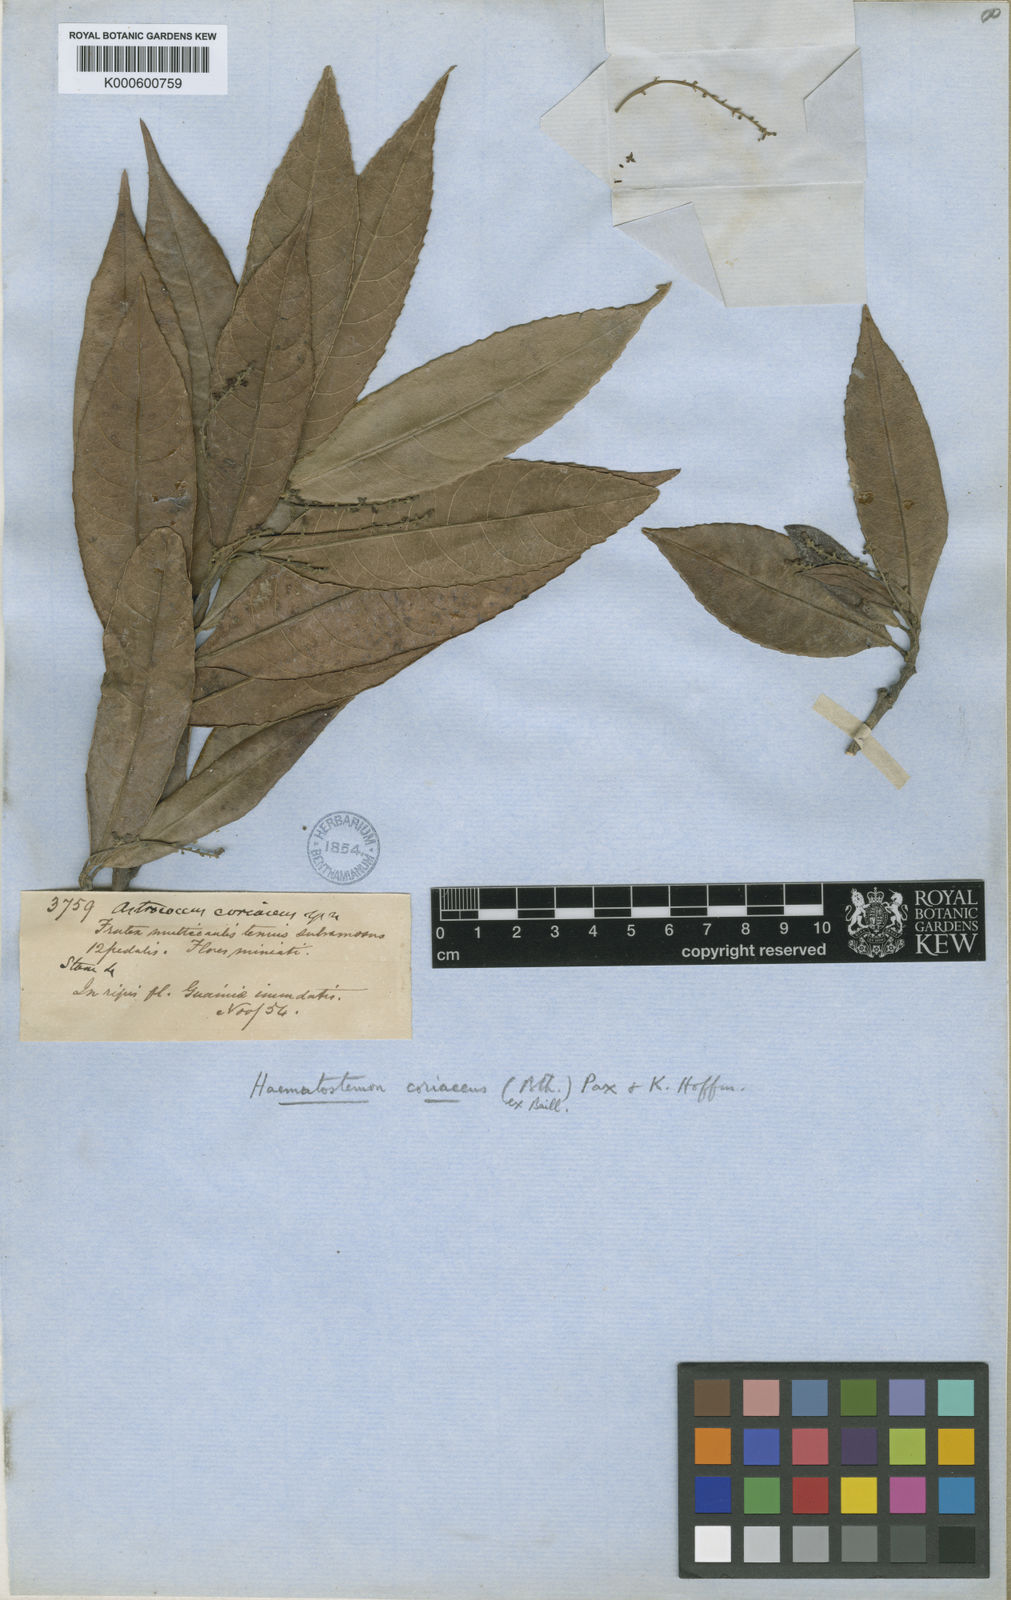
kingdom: Plantae
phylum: Tracheophyta
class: Magnoliopsida
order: Malpighiales
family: Euphorbiaceae
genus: Haematostemon
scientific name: Haematostemon coriaceus
